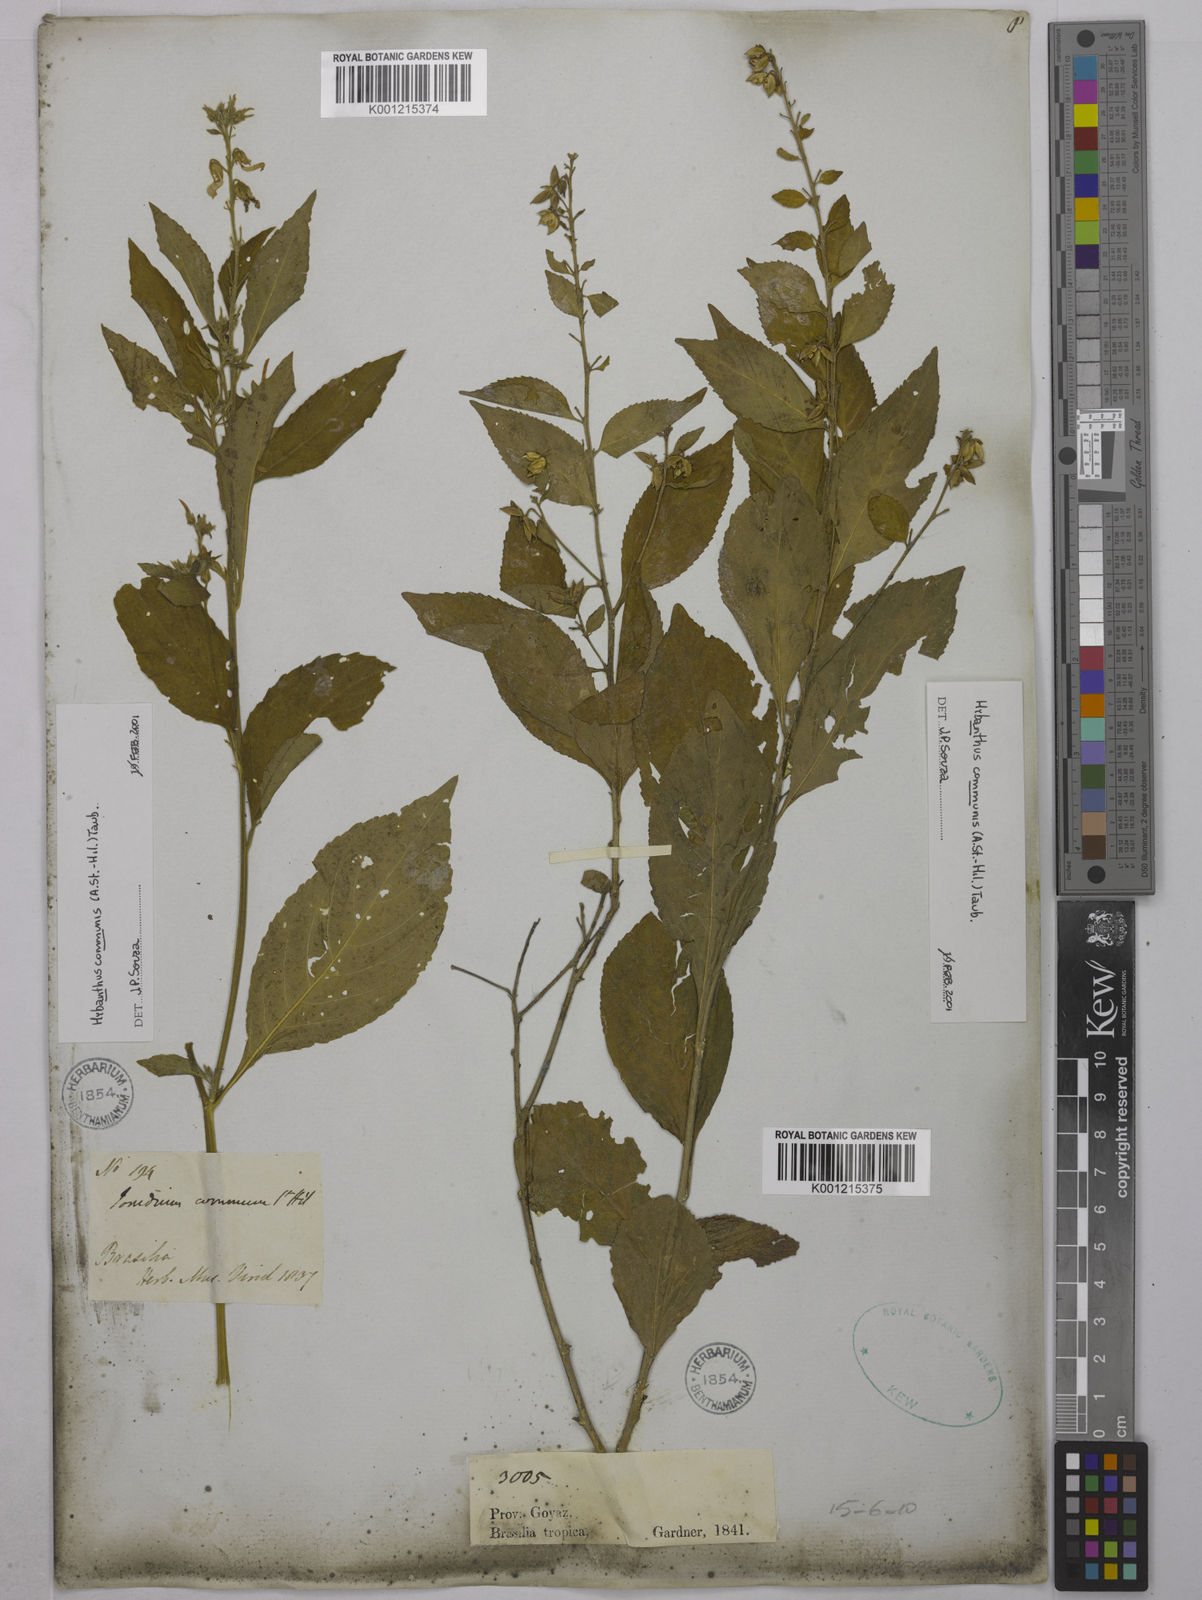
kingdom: Plantae
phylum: Tracheophyta
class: Magnoliopsida
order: Malpighiales
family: Violaceae
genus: Pombalia
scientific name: Pombalia communis
